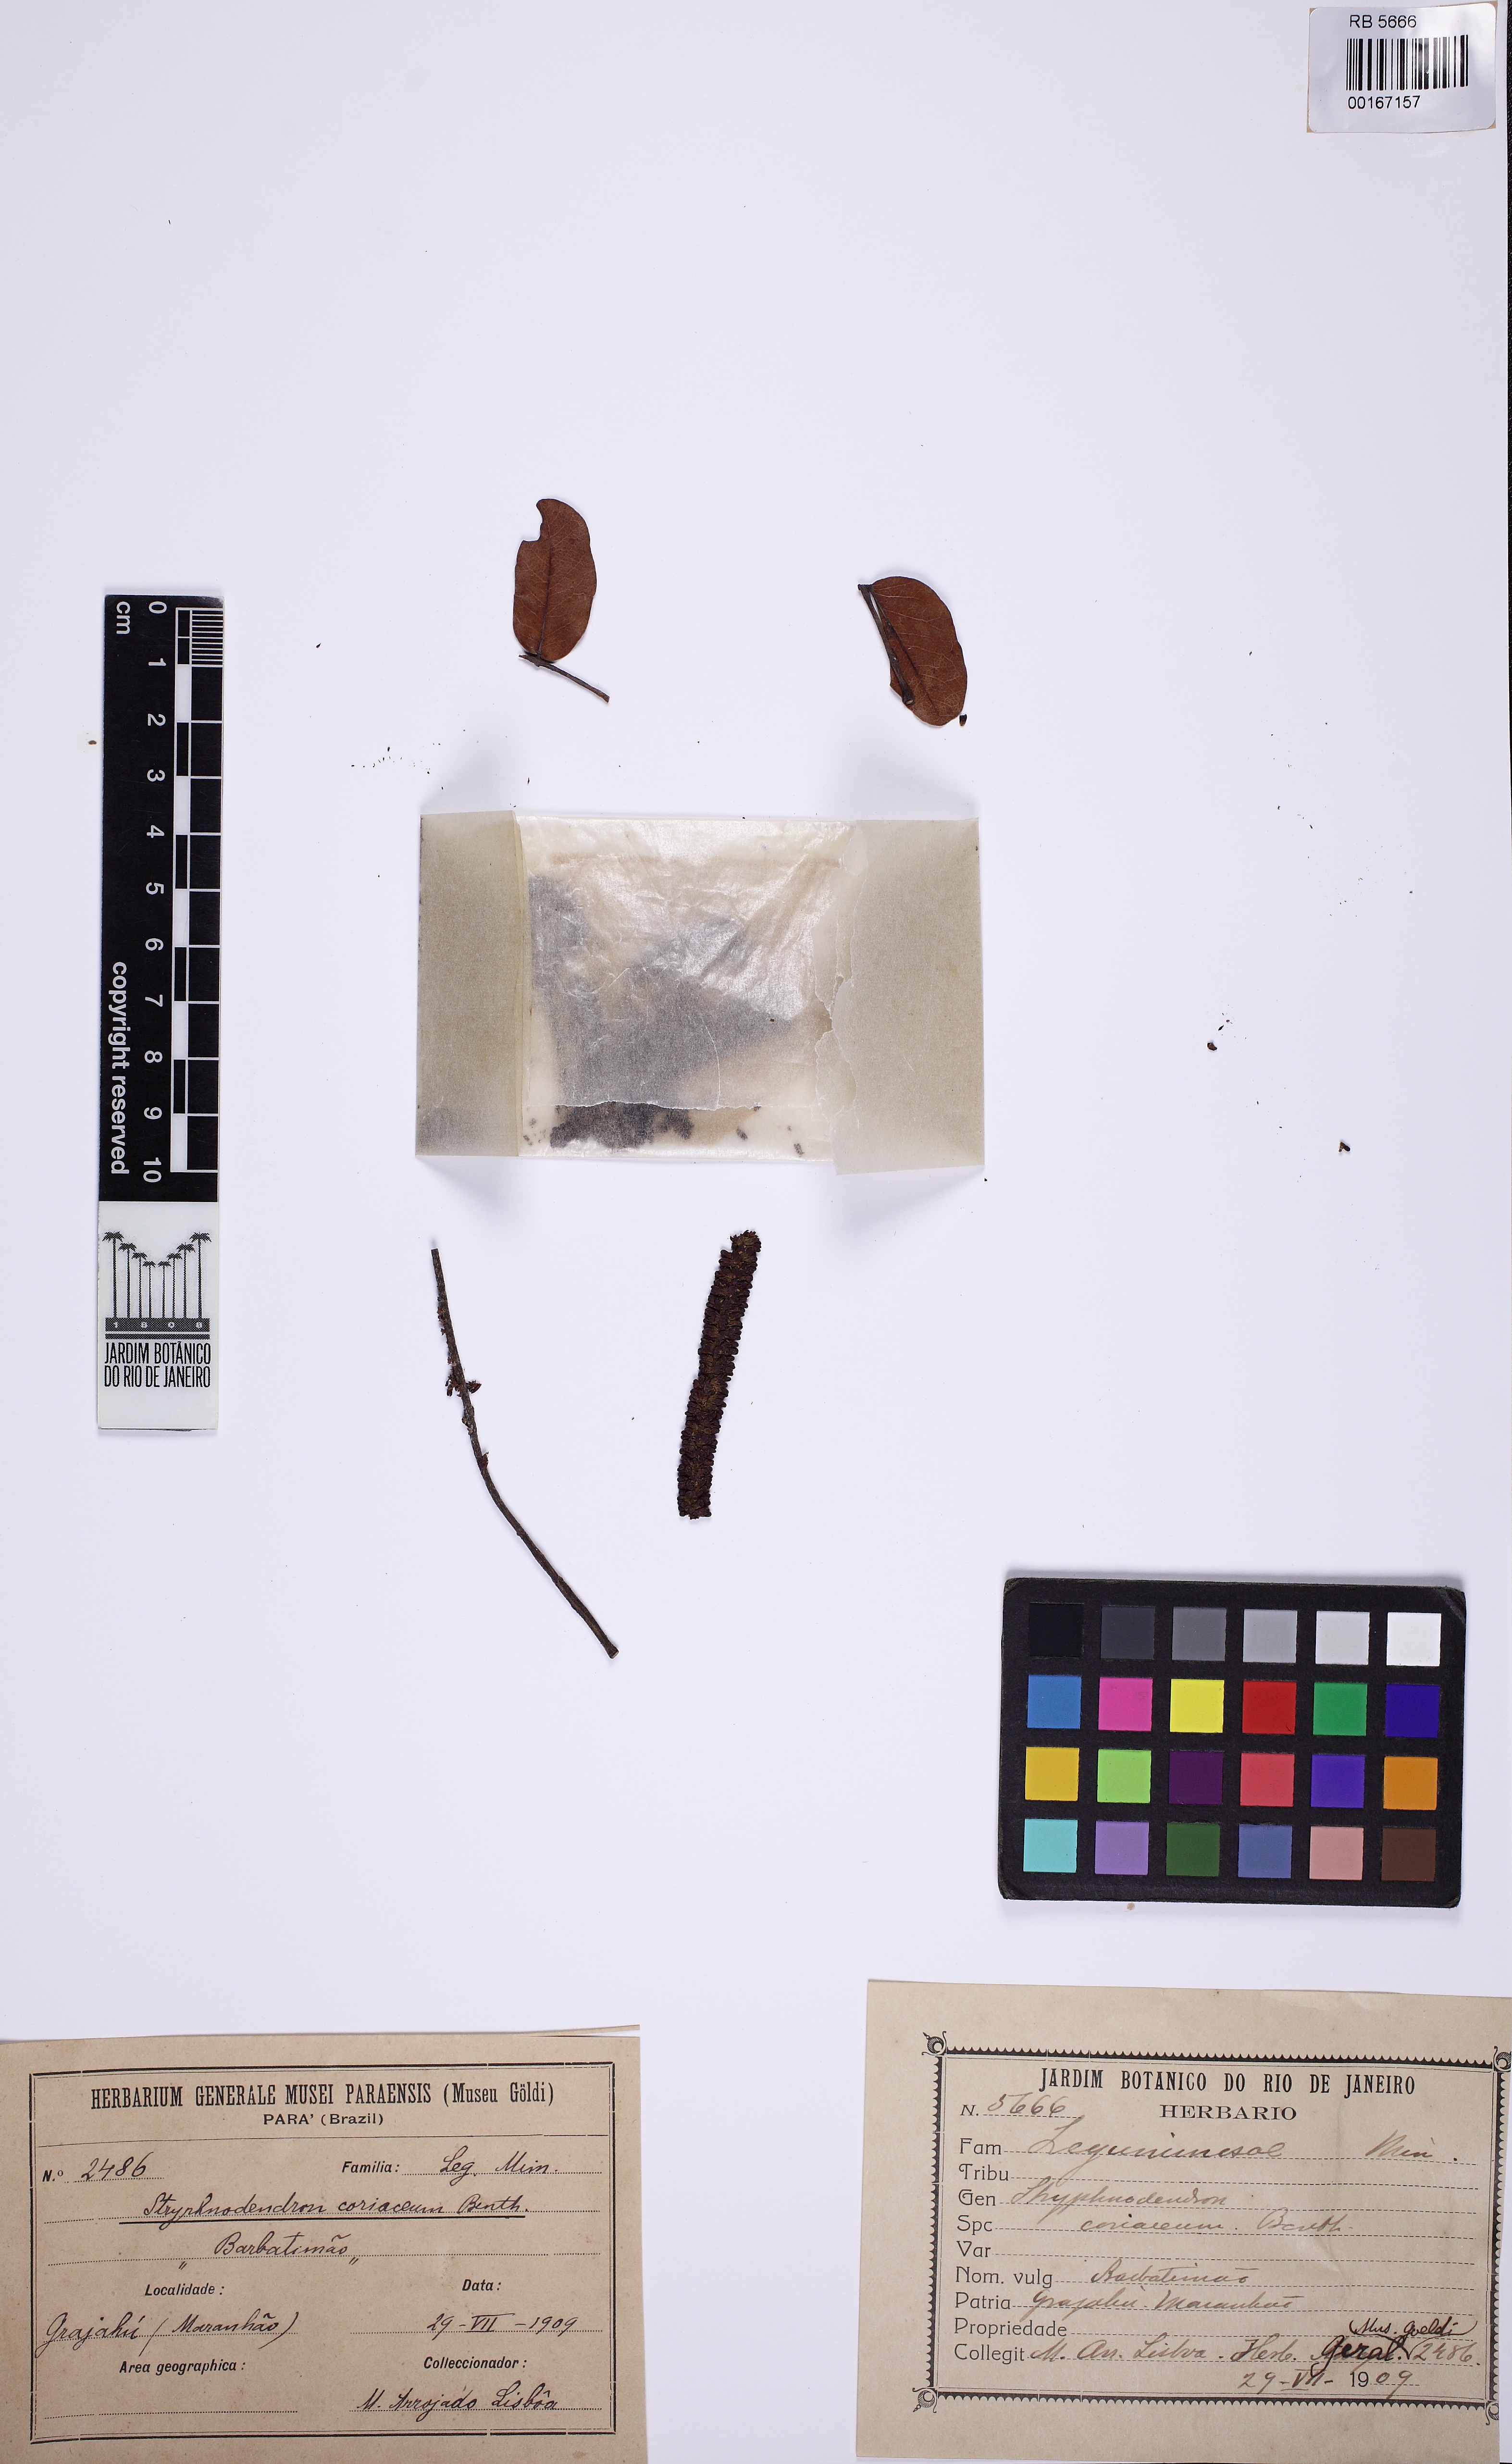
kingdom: Plantae
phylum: Tracheophyta
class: Magnoliopsida
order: Fabales
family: Fabaceae
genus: Stryphnodendron
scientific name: Stryphnodendron coriaceum
